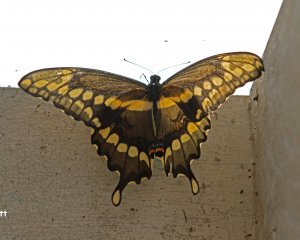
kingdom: Animalia
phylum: Arthropoda
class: Insecta
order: Lepidoptera
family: Papilionidae
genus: Papilio
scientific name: Papilio cresphontes
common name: Eastern Giant Swallowtail
